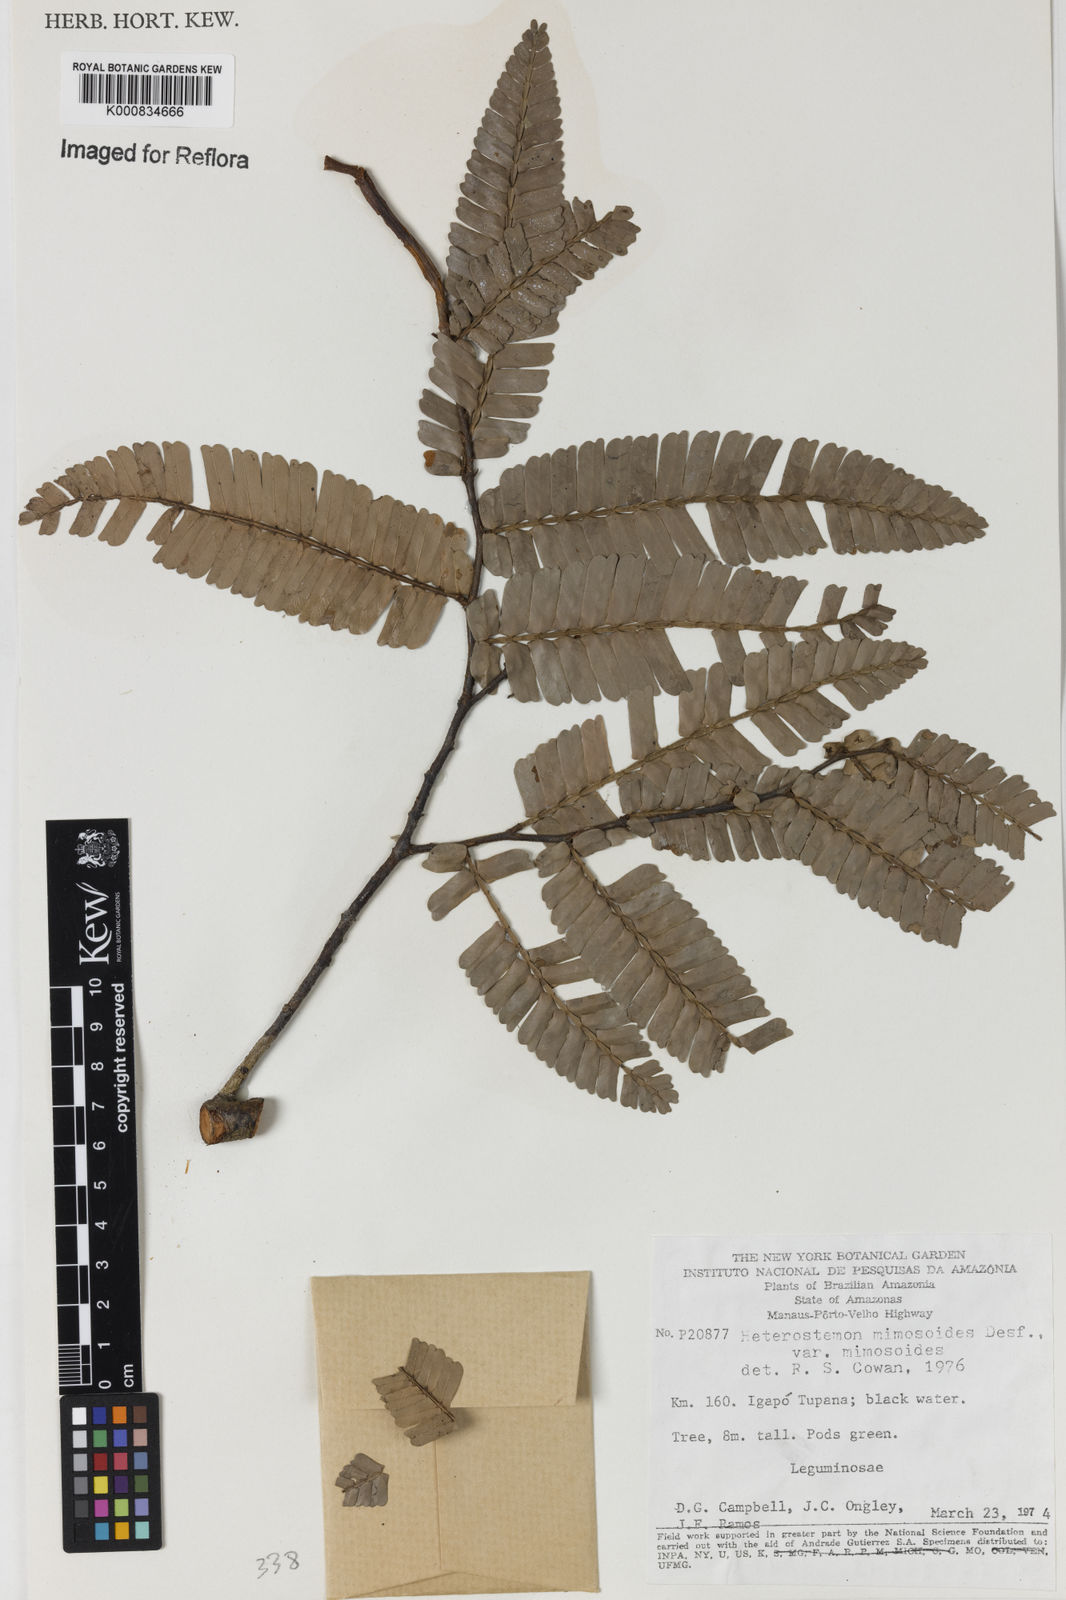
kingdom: Plantae
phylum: Tracheophyta
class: Magnoliopsida
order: Fabales
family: Fabaceae
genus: Heterostemon
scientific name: Heterostemon mimosoides
